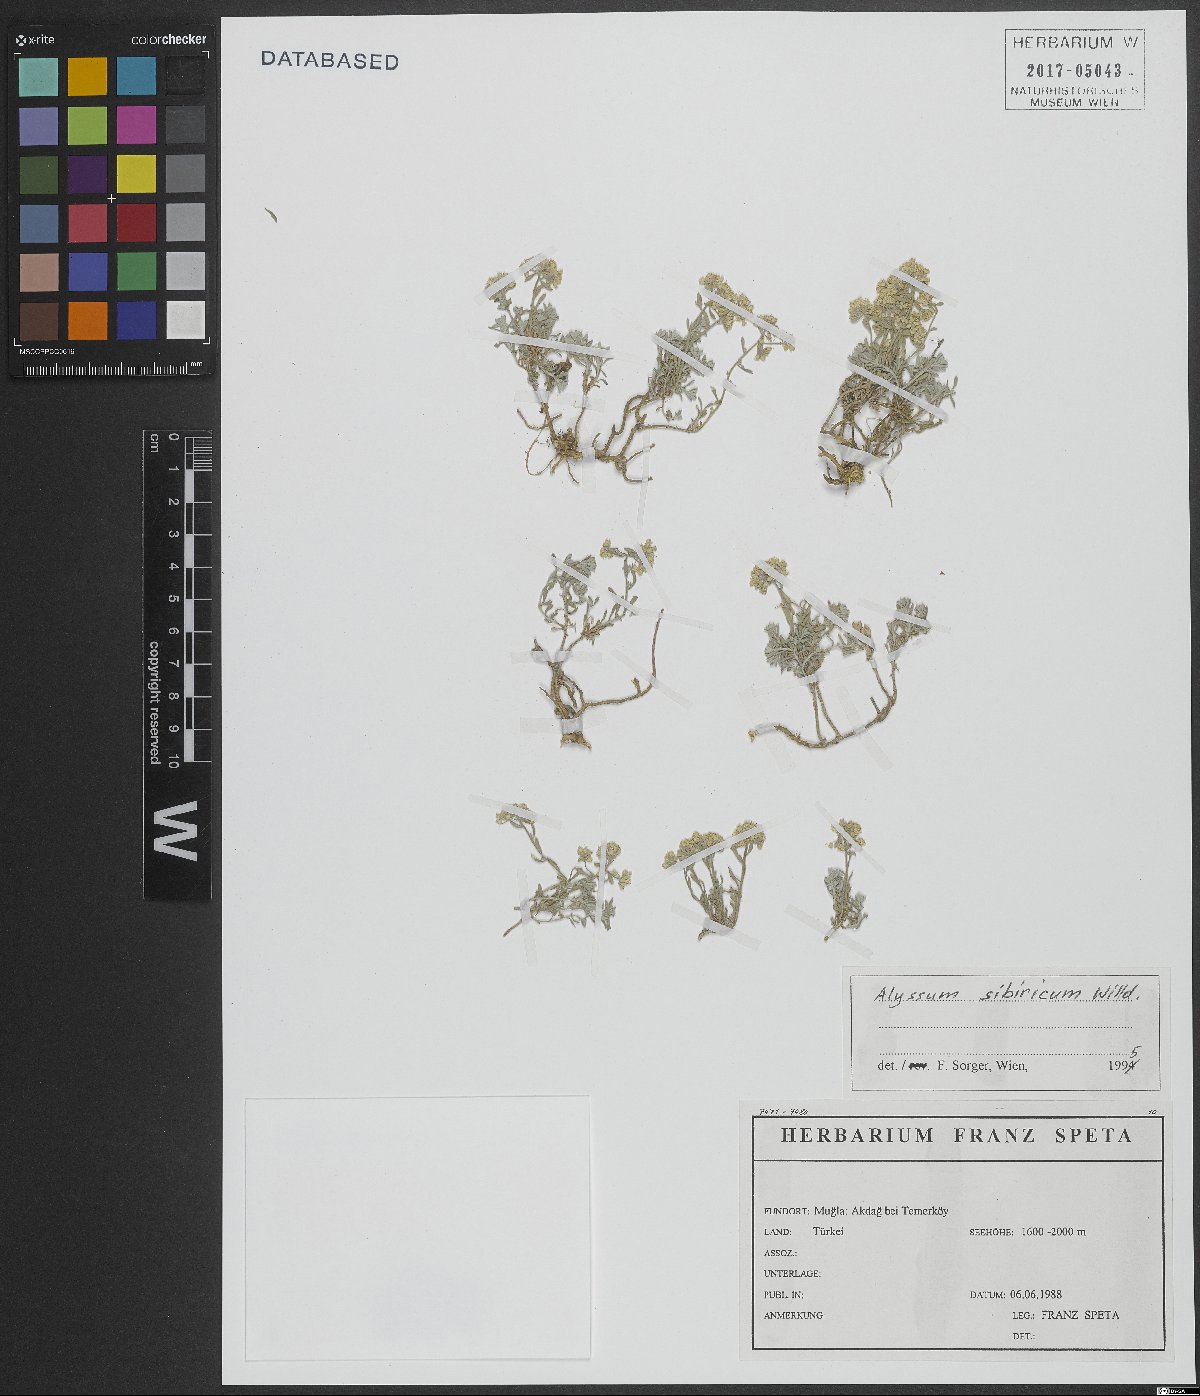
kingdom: Plantae
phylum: Tracheophyta
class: Magnoliopsida
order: Brassicales
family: Brassicaceae
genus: Odontarrhena
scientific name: Odontarrhena sibirica
